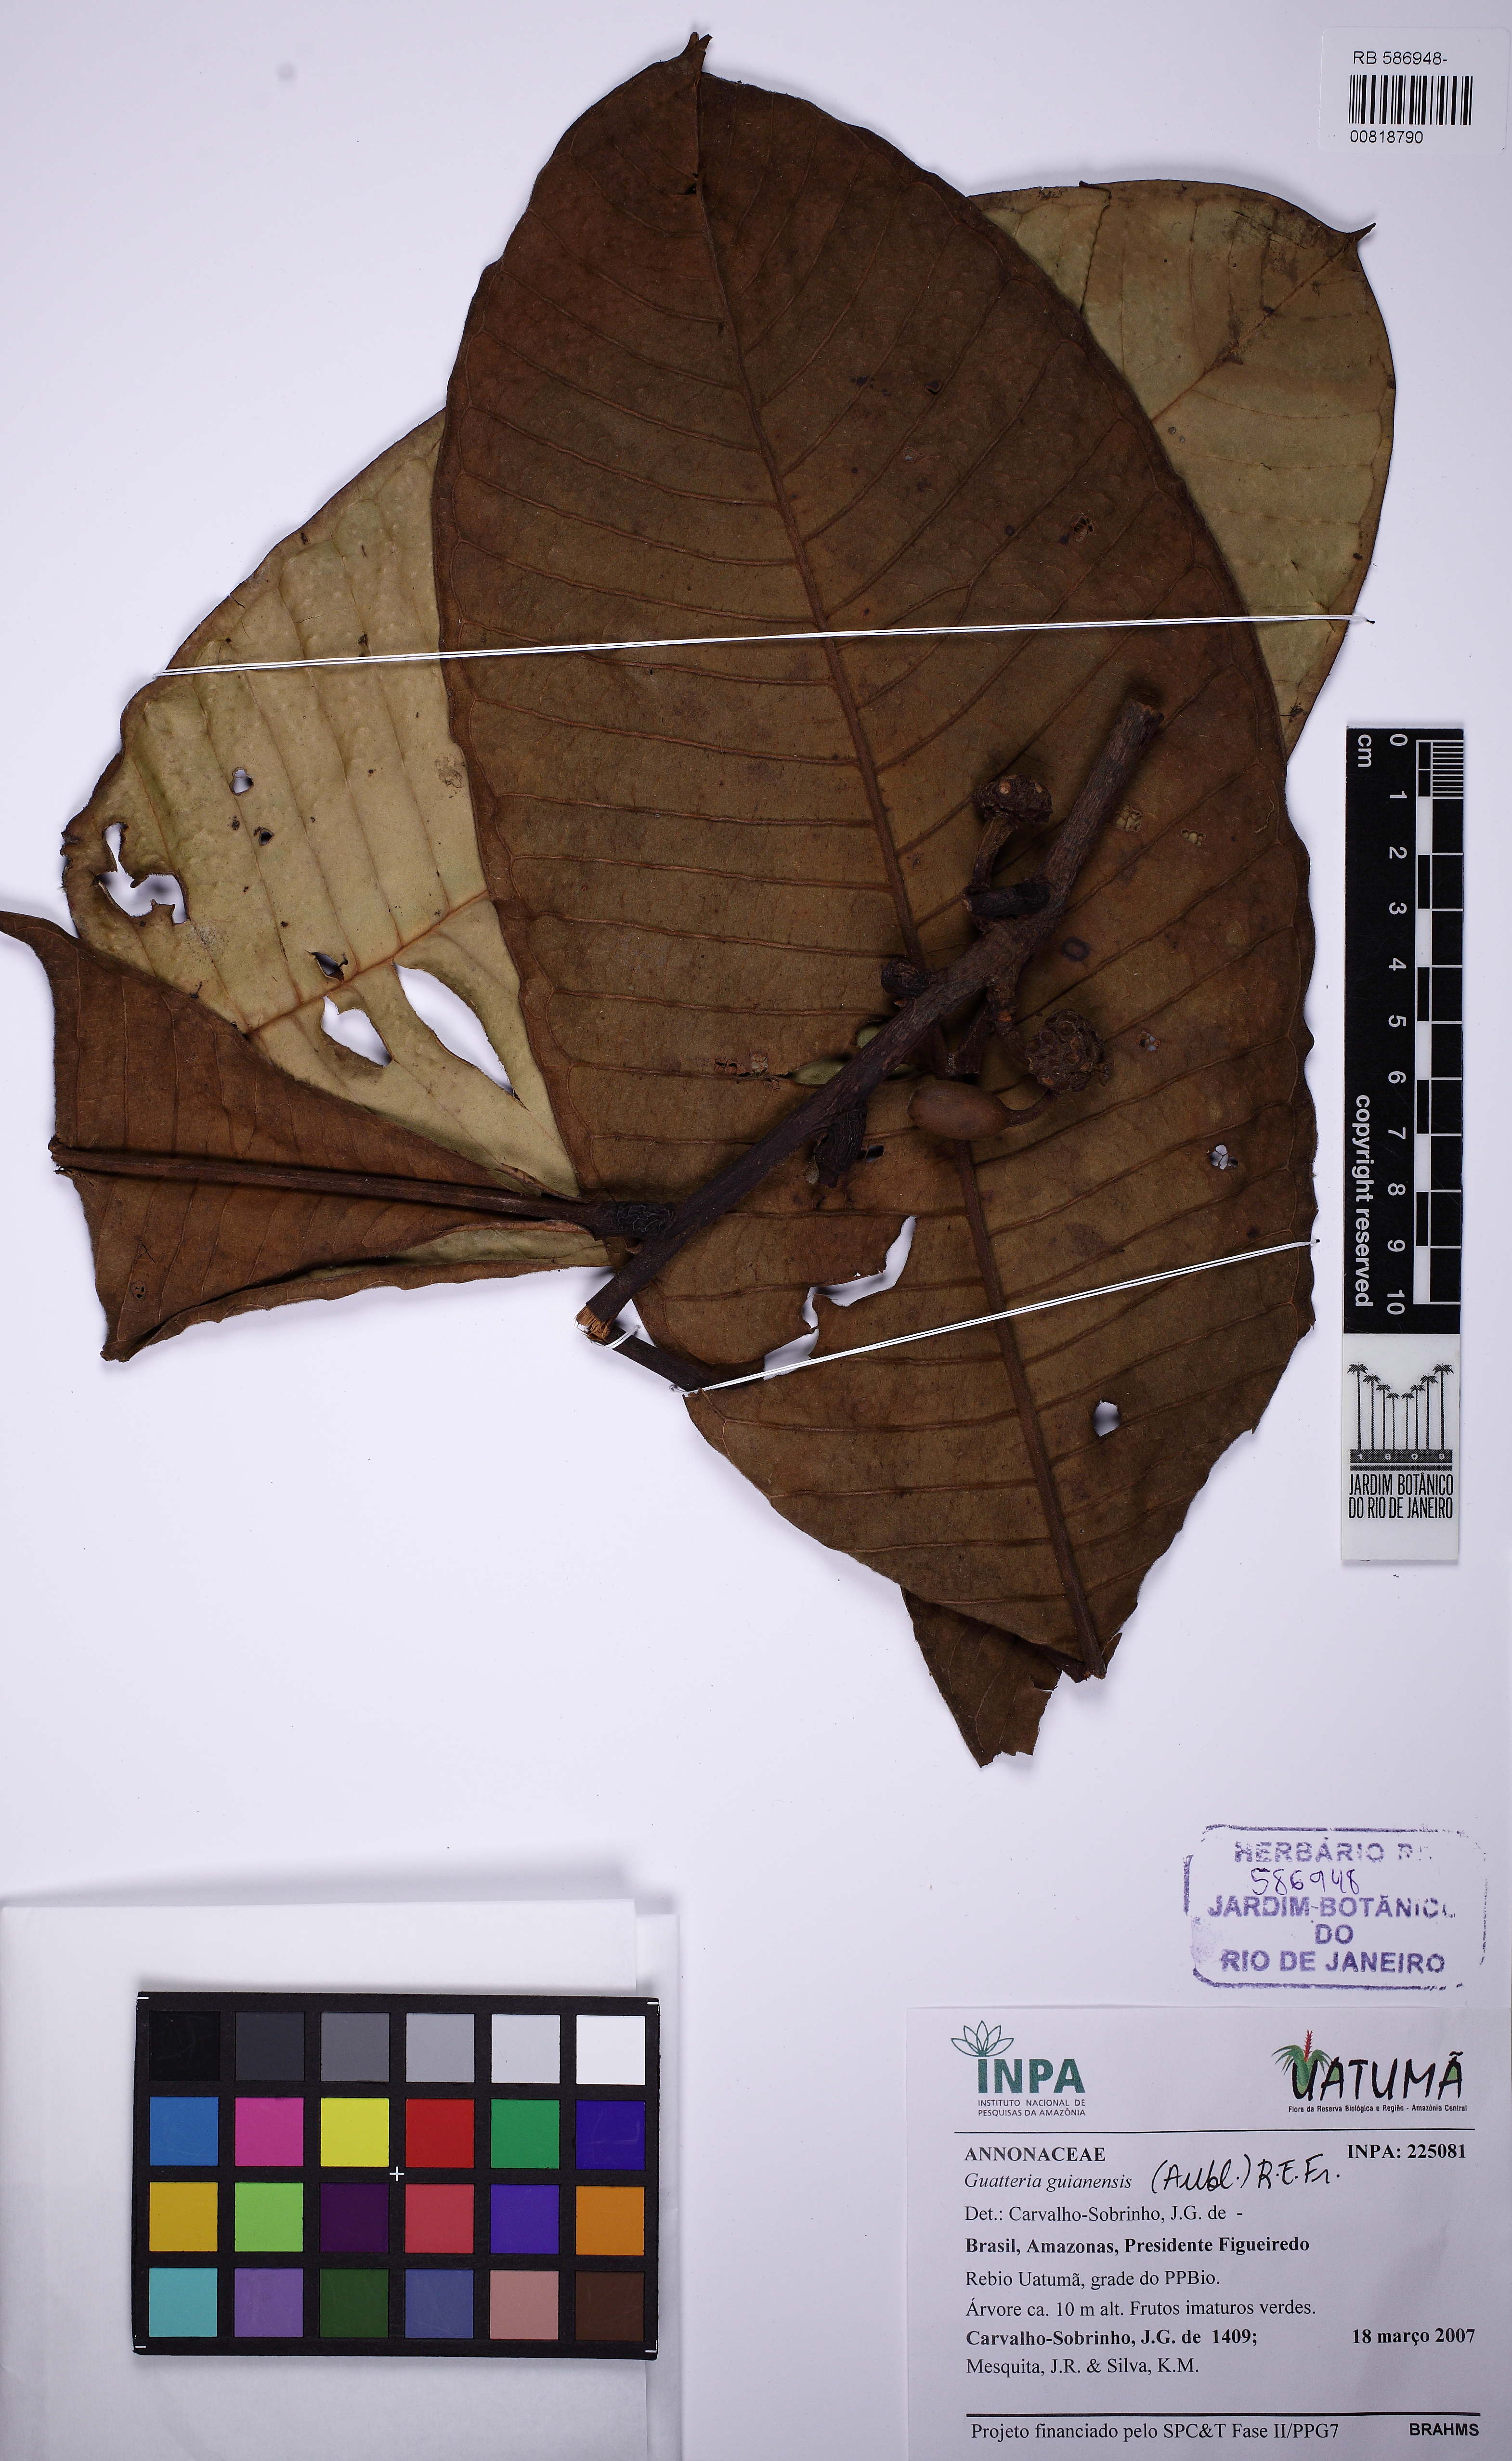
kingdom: Plantae
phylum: Tracheophyta
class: Magnoliopsida
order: Magnoliales
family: Annonaceae
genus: Guatteria
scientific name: Guatteria guianensis
